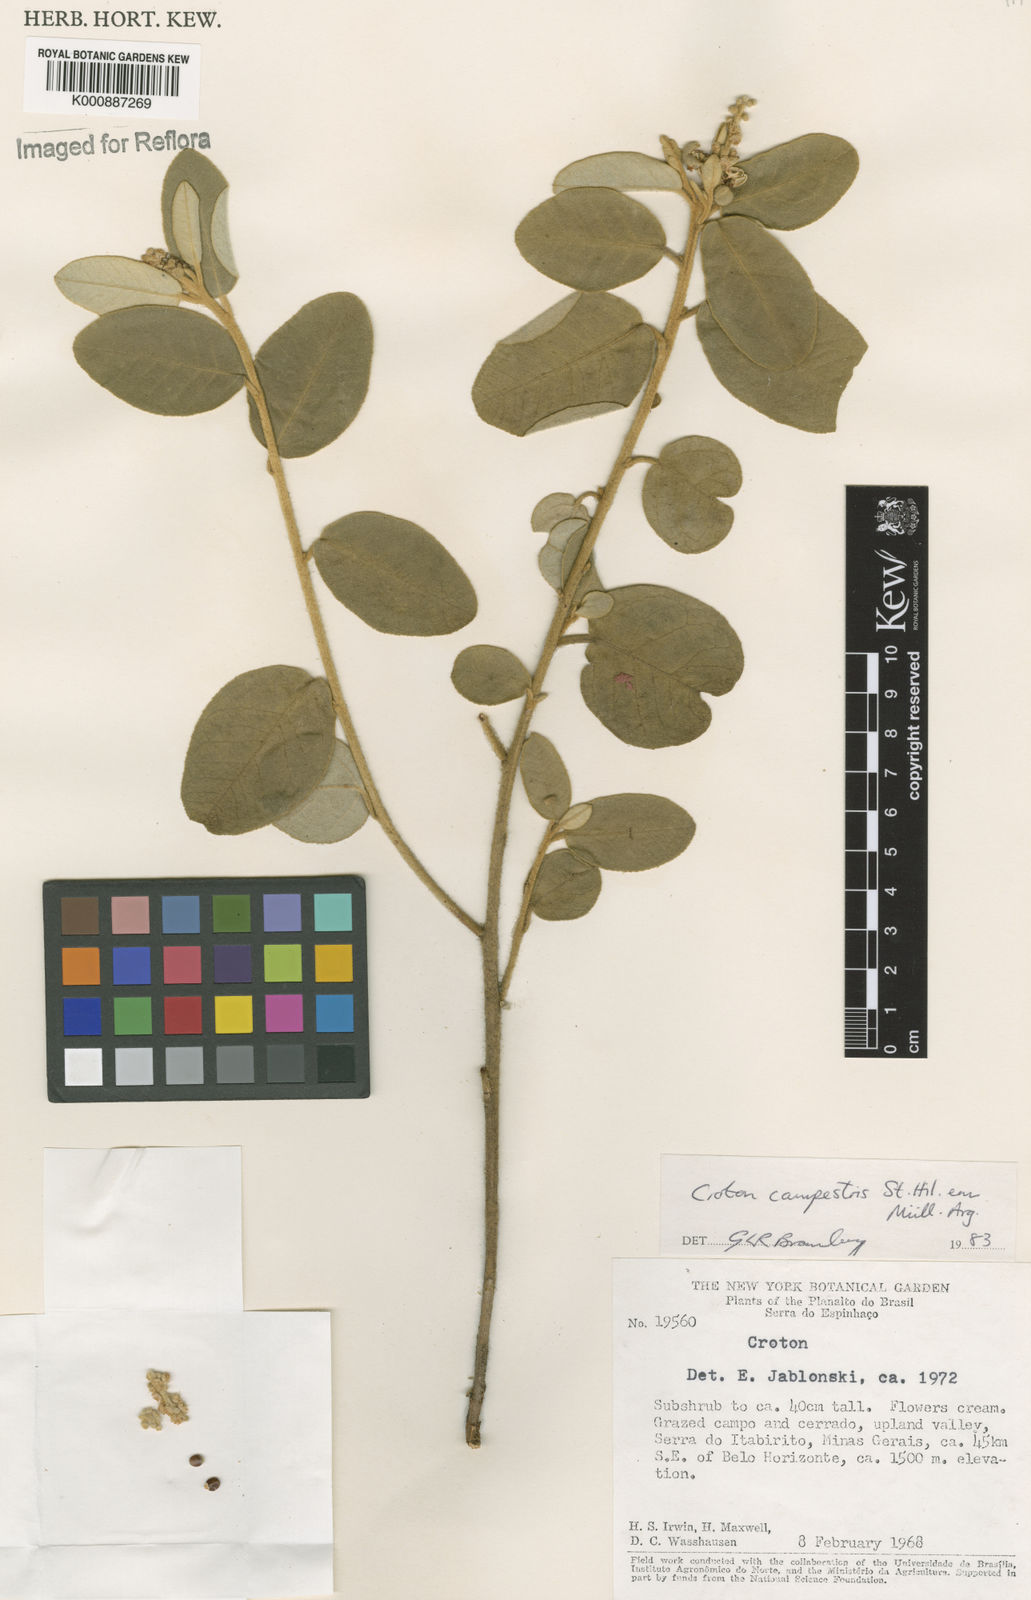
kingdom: Plantae
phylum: Tracheophyta
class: Magnoliopsida
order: Malpighiales
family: Euphorbiaceae
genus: Croton
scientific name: Croton campestris
